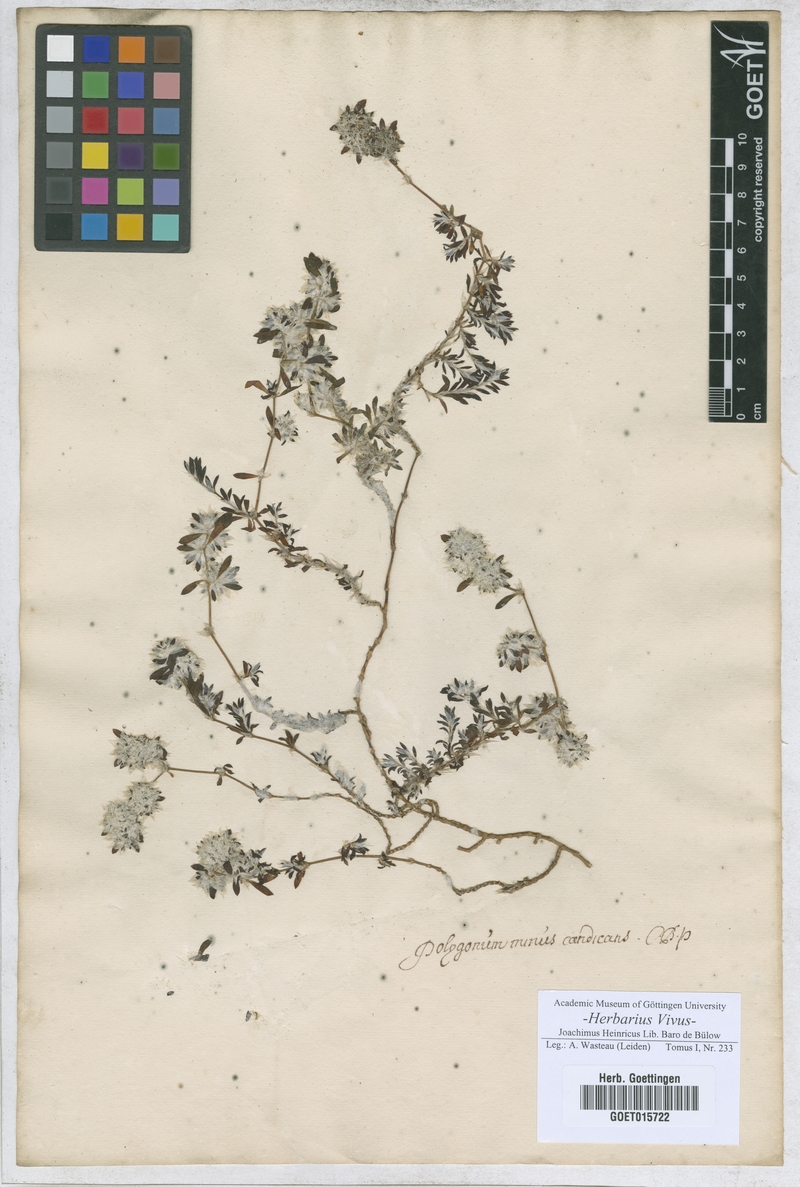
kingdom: Plantae
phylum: Tracheophyta
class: Magnoliopsida
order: Caryophyllales
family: Polygonaceae
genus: Polygonum
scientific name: Polygonum
